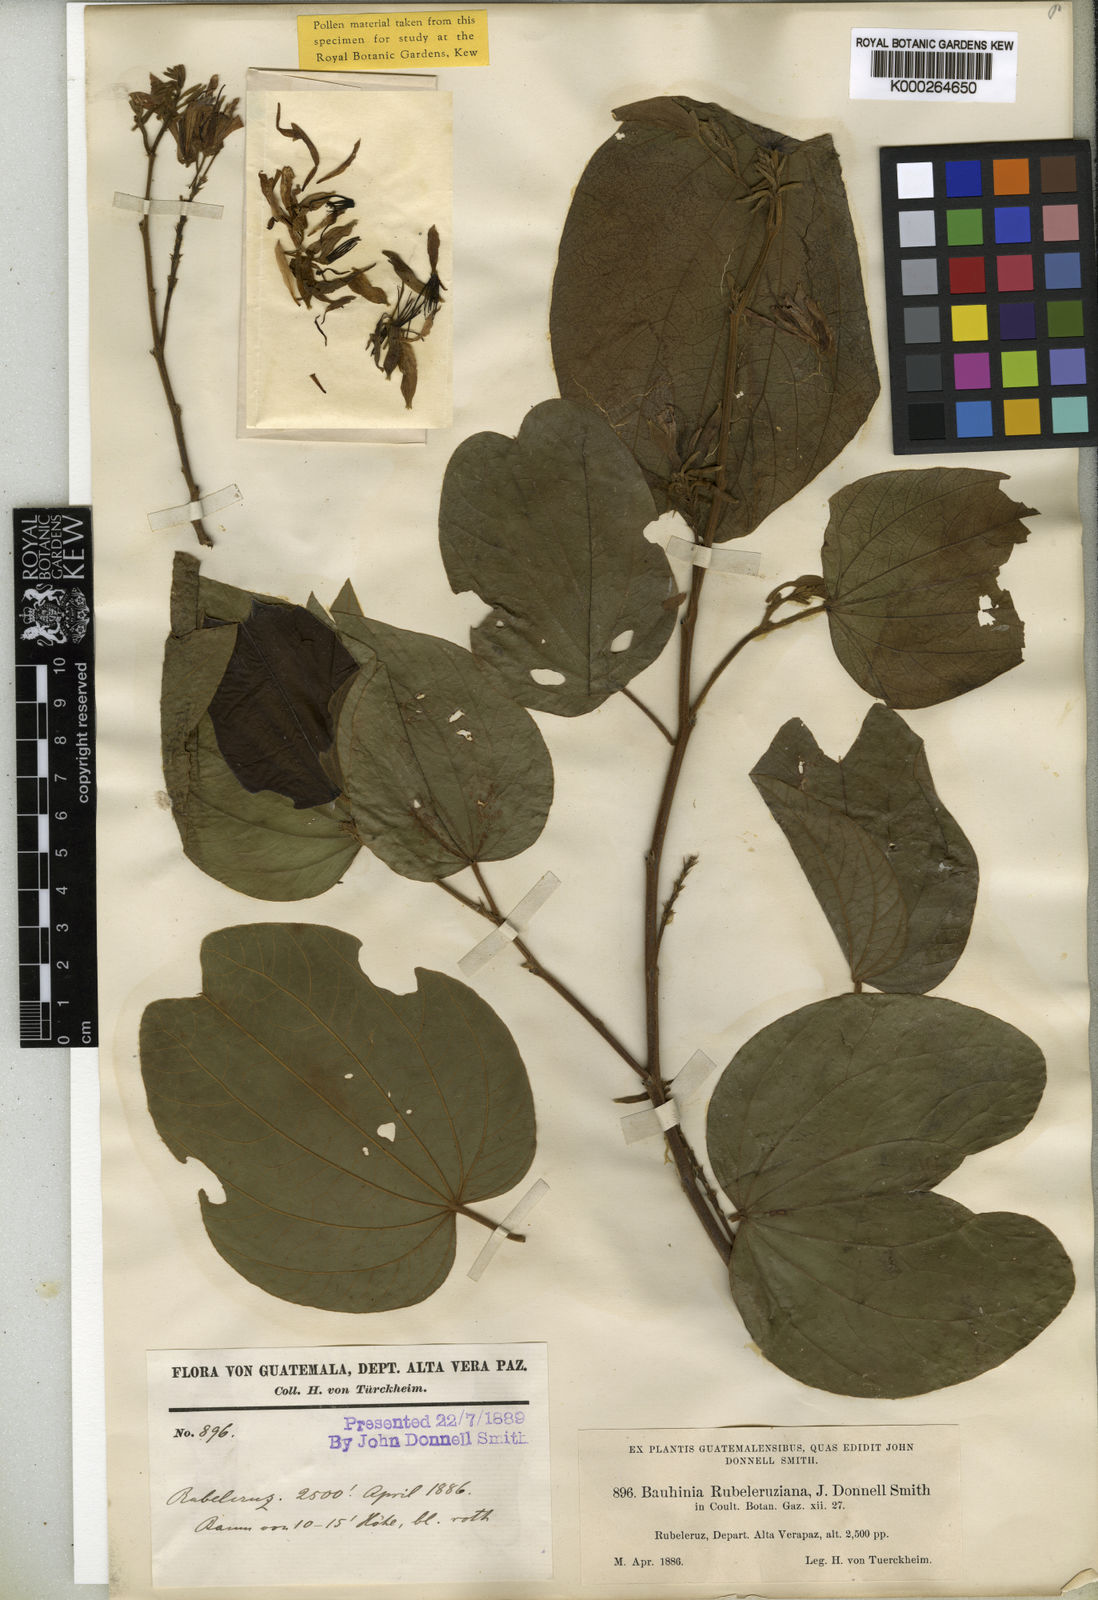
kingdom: Plantae
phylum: Tracheophyta
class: Magnoliopsida
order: Fabales
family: Fabaceae
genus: Bauhinia
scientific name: Bauhinia rubeleruziana
